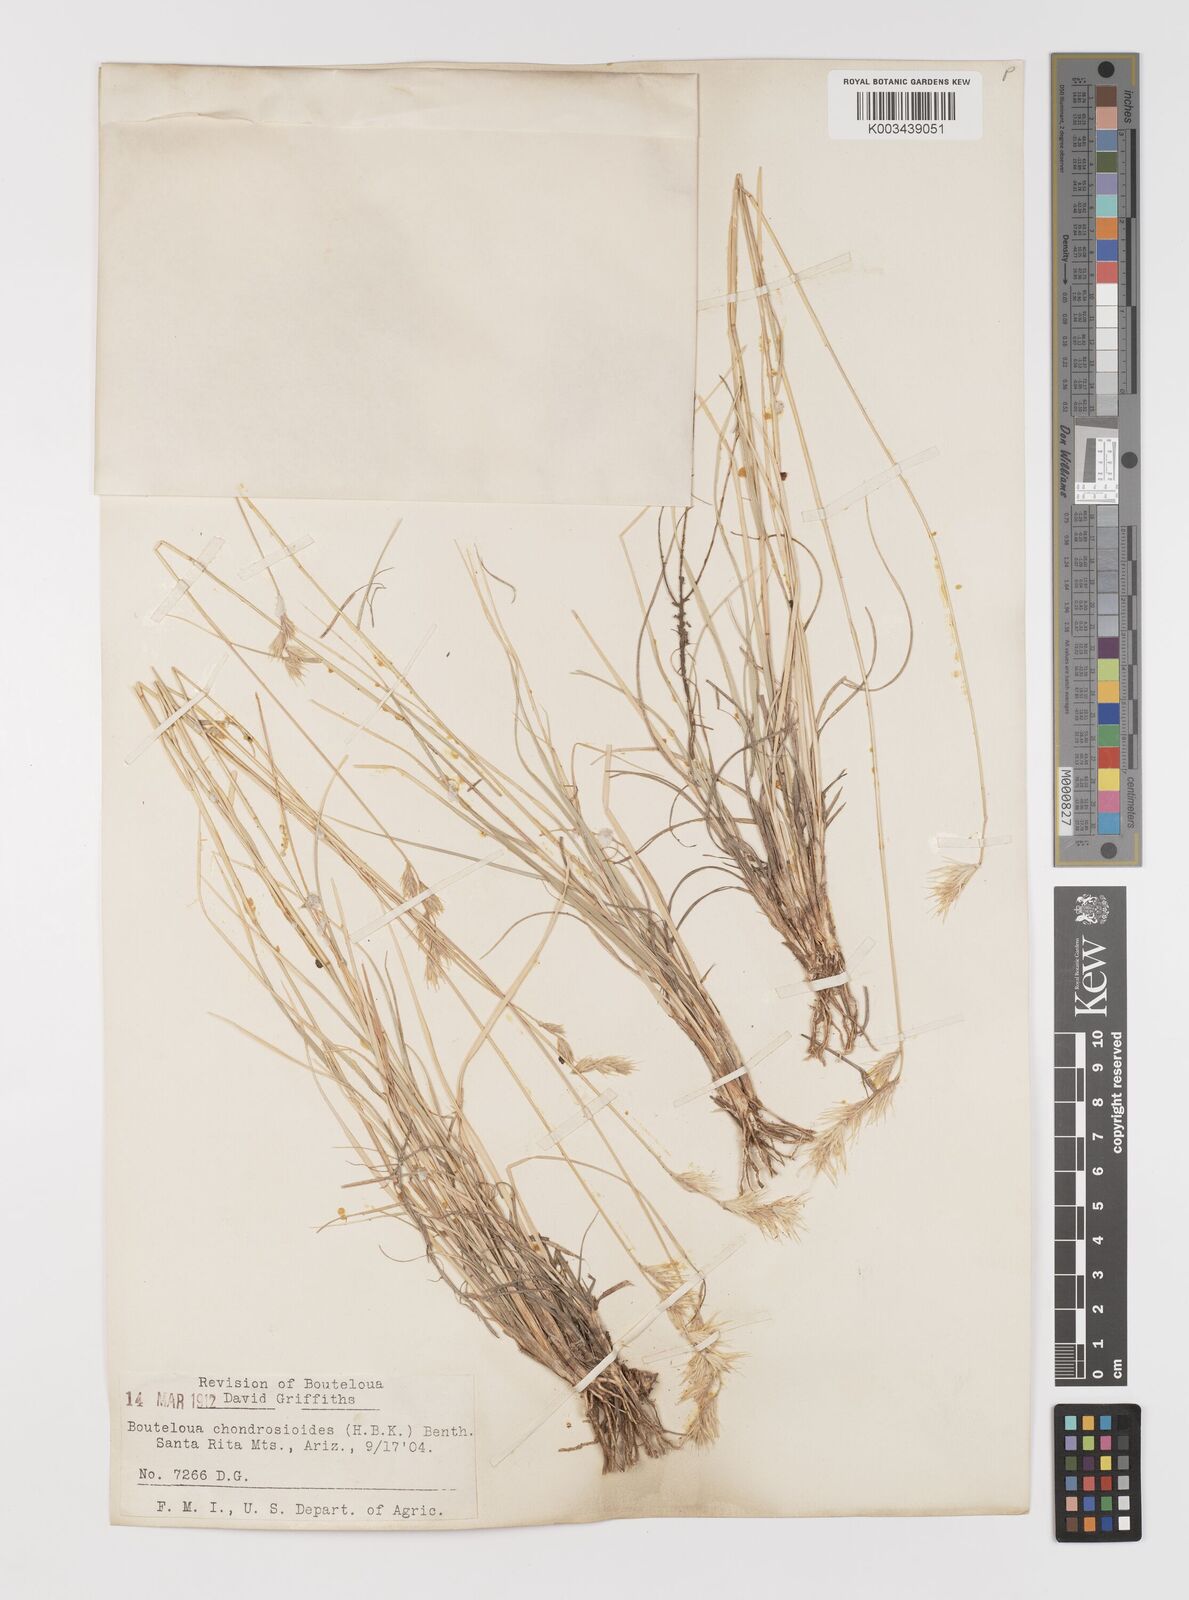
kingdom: Plantae
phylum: Tracheophyta
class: Liliopsida
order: Poales
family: Poaceae
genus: Bouteloua
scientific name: Bouteloua chondrosioides
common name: Sprucetop grama
